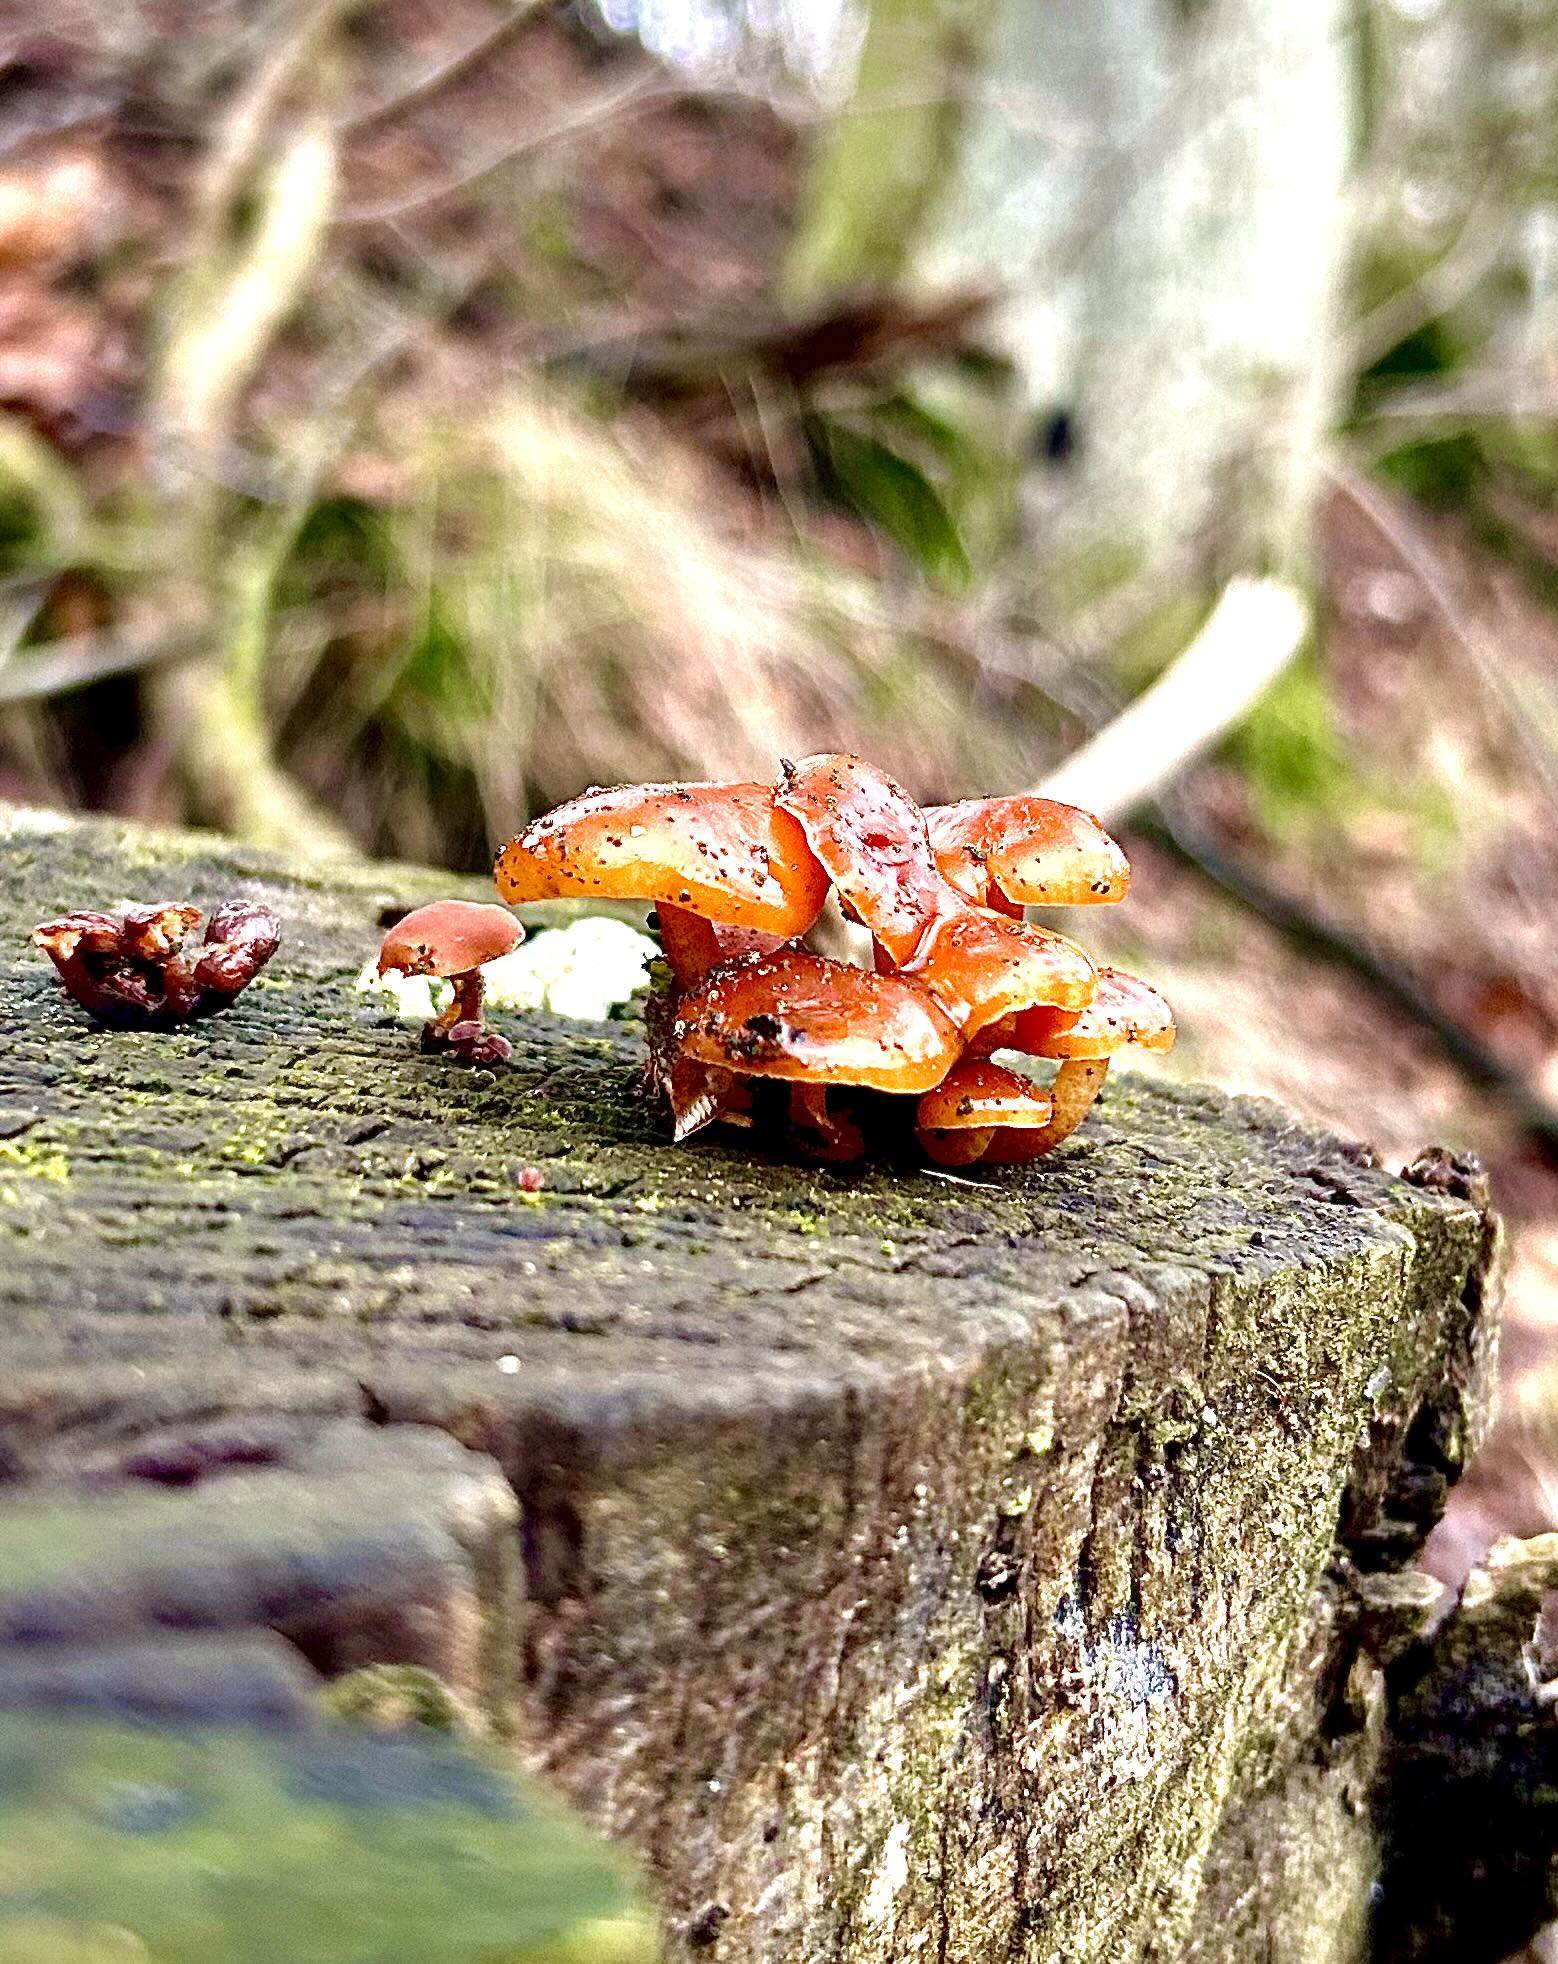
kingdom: Fungi
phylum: Basidiomycota
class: Agaricomycetes
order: Agaricales
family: Physalacriaceae
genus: Flammulina
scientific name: Flammulina velutipes
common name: gul fløjlsfod
